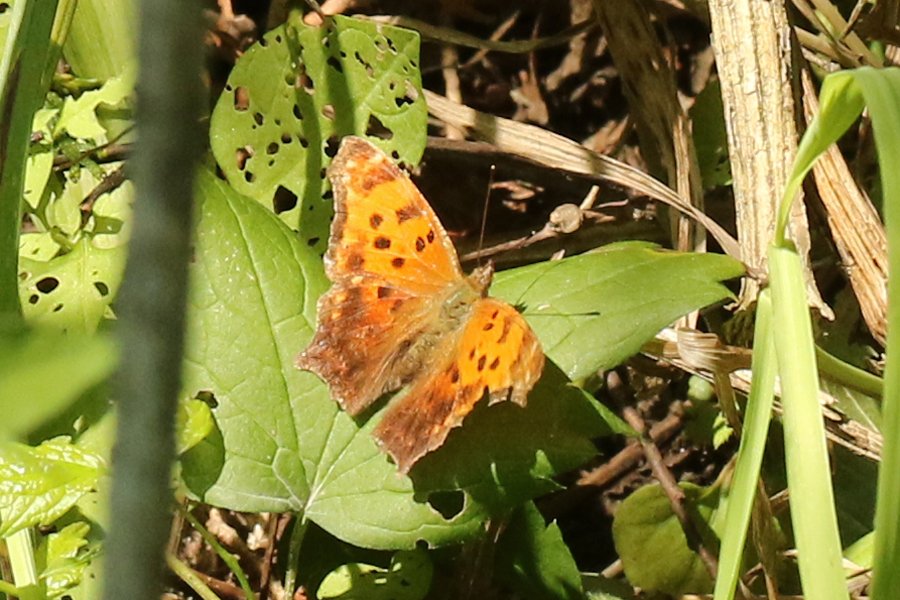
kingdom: Animalia
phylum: Arthropoda
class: Insecta
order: Lepidoptera
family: Nymphalidae
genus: Polygonia
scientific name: Polygonia comma
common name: Eastern Comma
